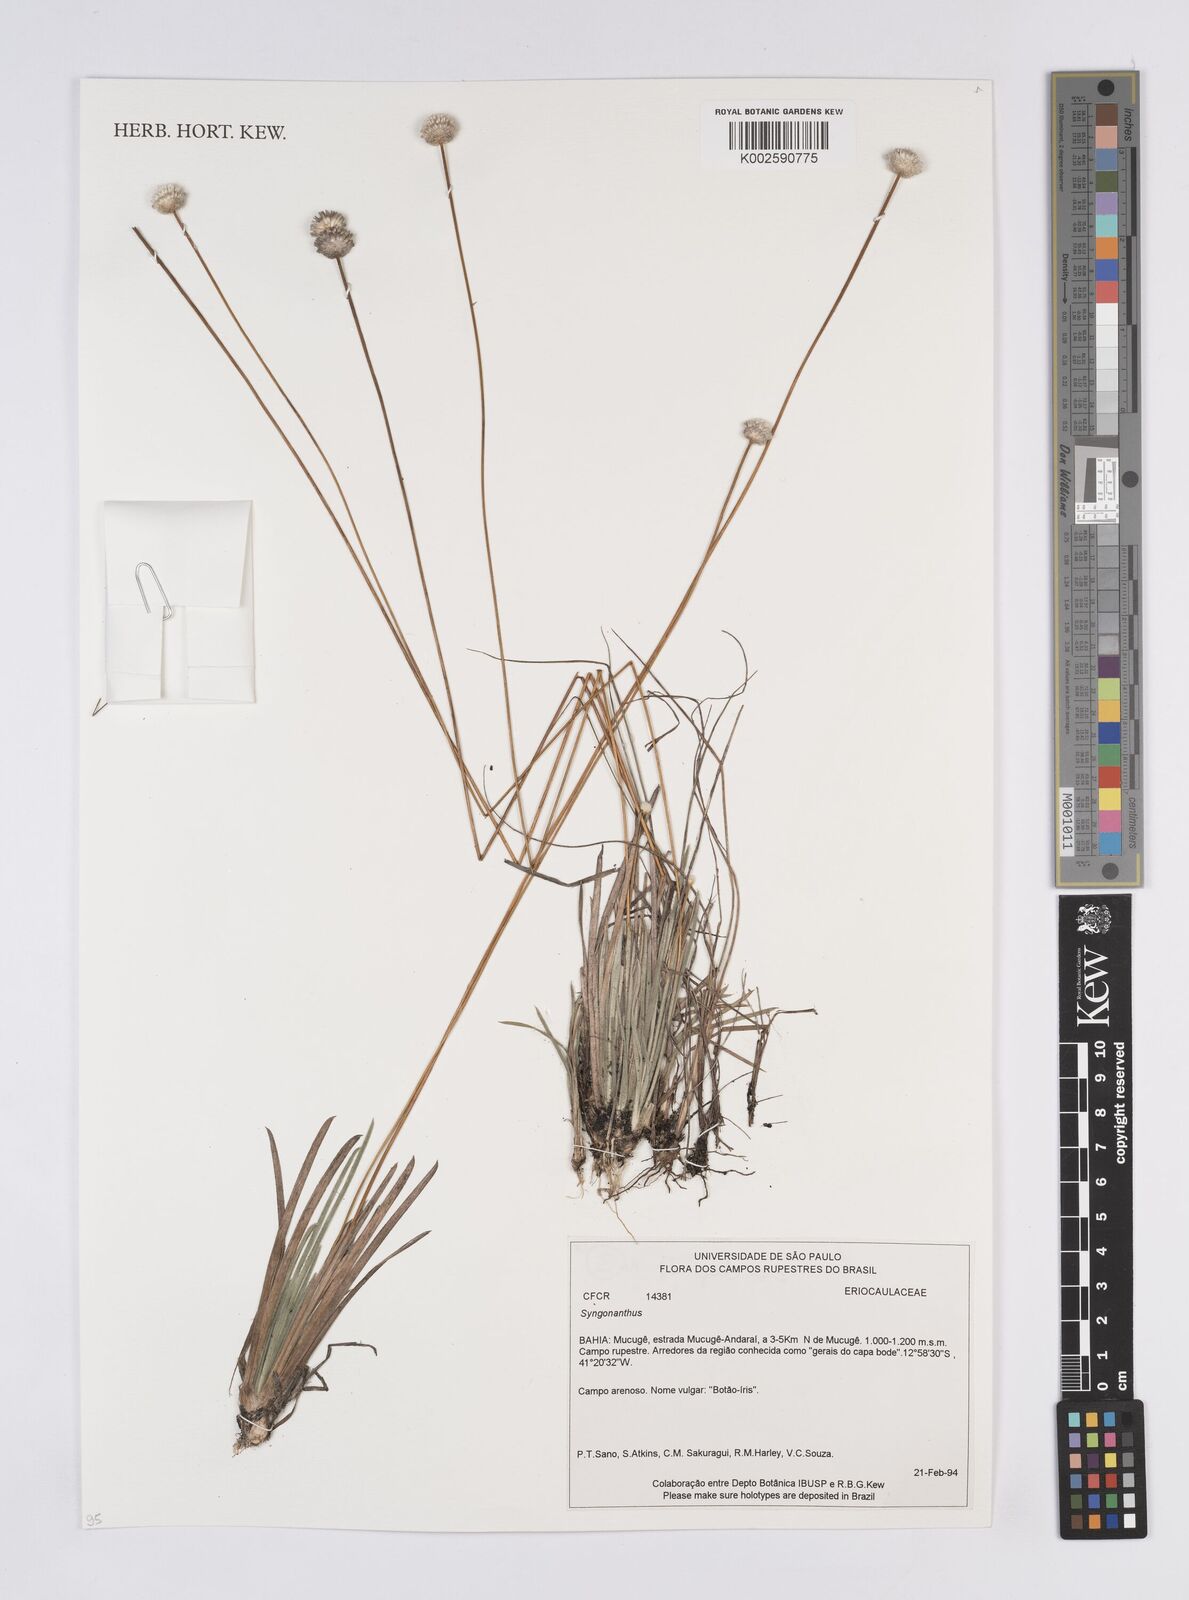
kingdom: Plantae
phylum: Tracheophyta
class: Liliopsida
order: Poales
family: Eriocaulaceae
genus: Leiothrix
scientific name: Leiothrix
